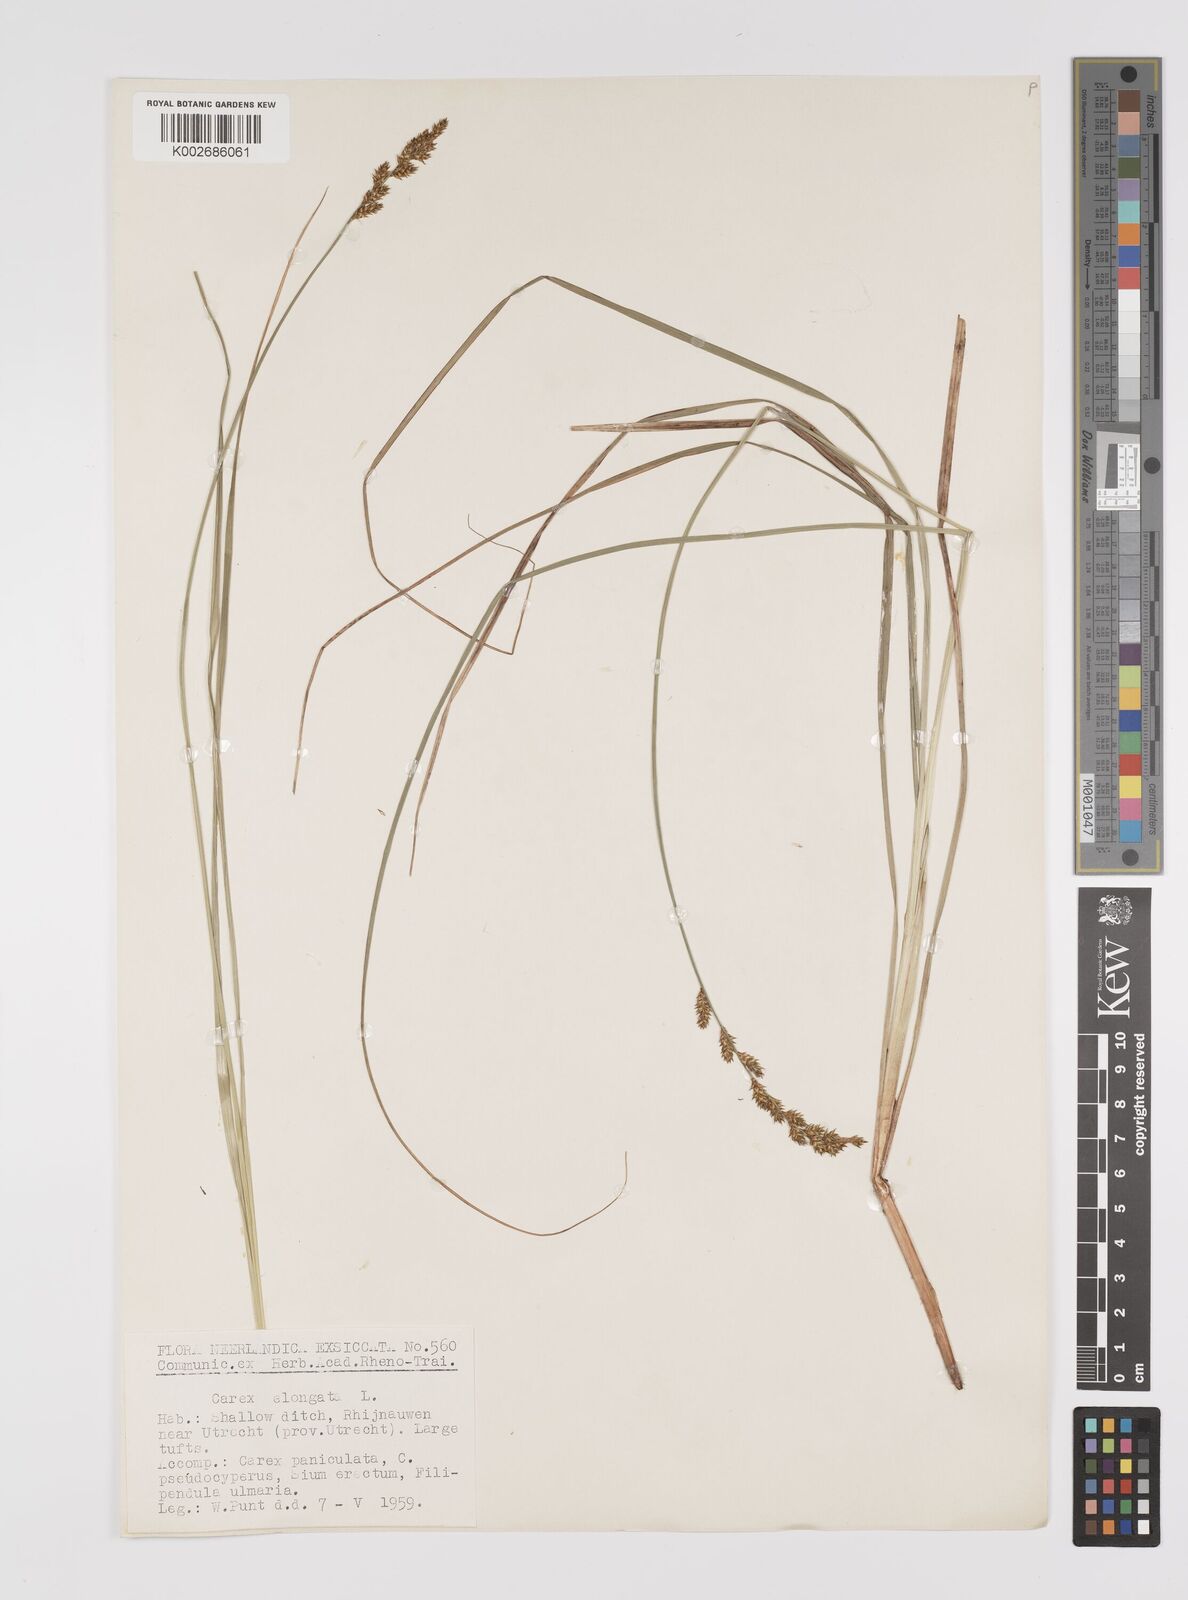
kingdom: Plantae
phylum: Tracheophyta
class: Liliopsida
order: Poales
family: Cyperaceae
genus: Carex
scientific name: Carex elongata
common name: Elongated sedge
